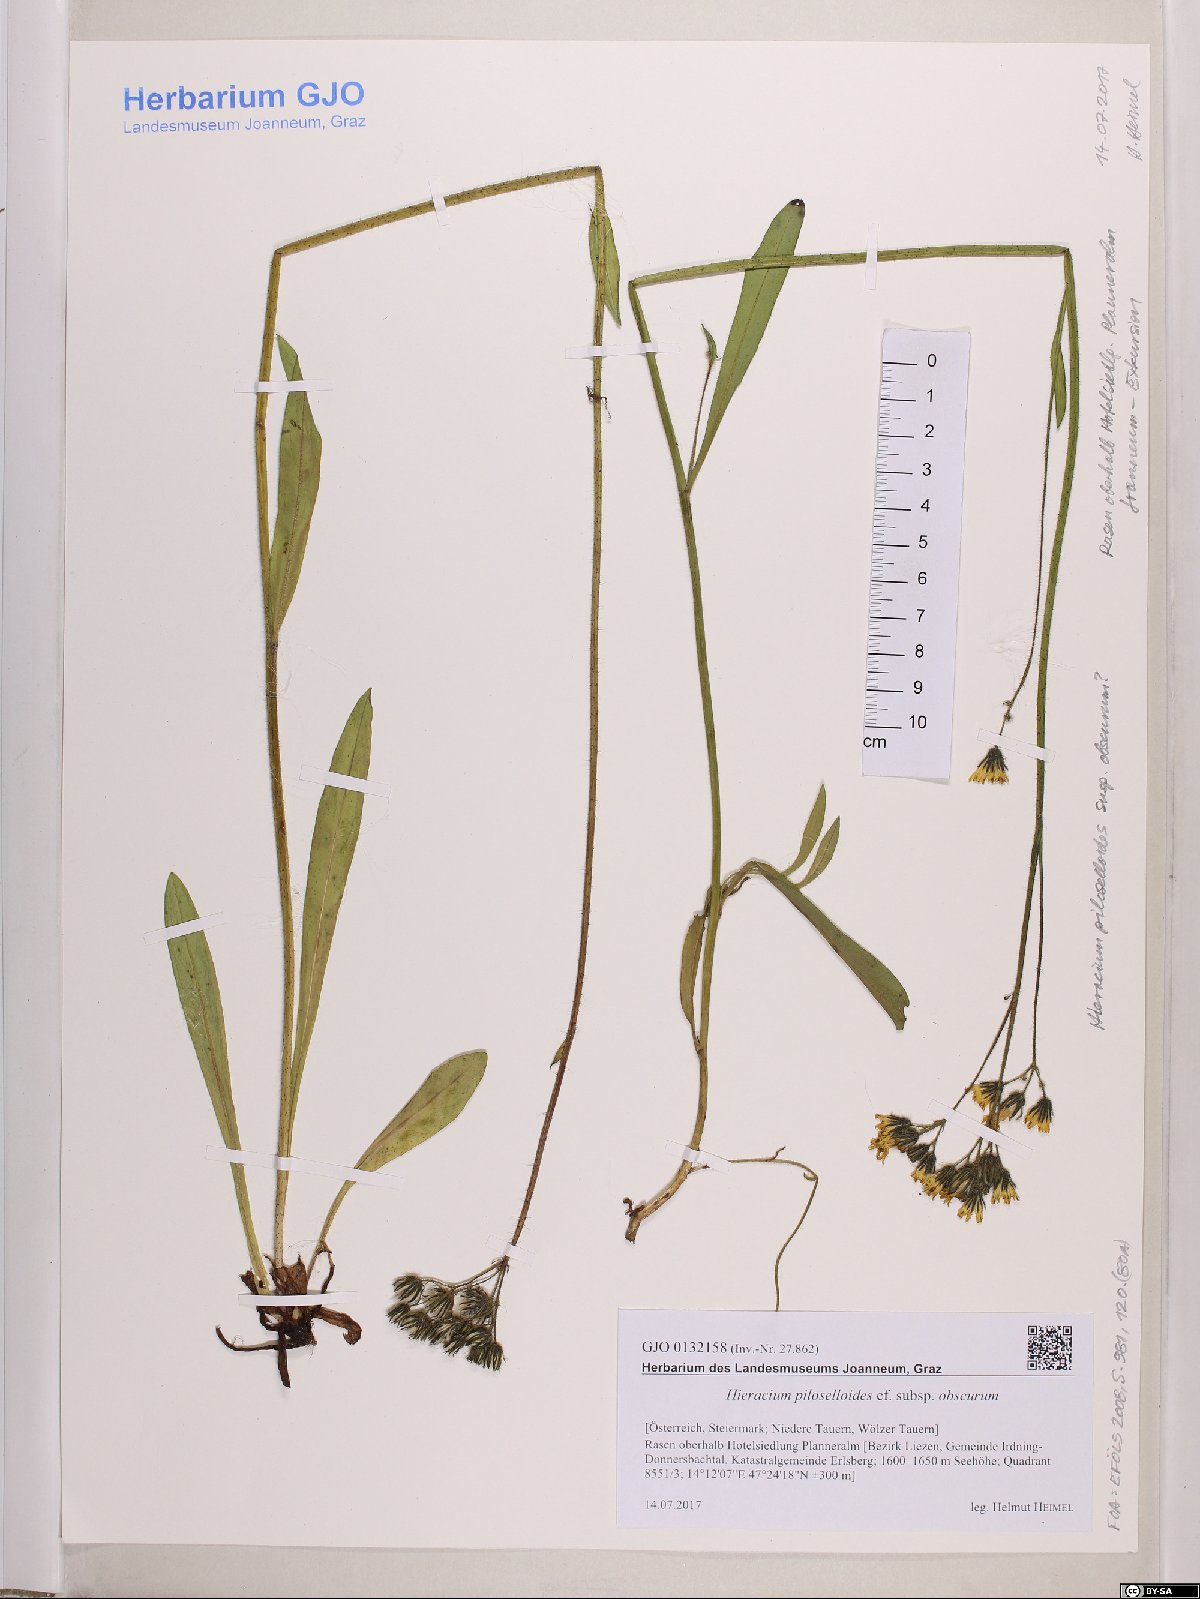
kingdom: Plantae
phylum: Tracheophyta
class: Magnoliopsida
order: Asterales
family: Asteraceae
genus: Pilosella
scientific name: Pilosella piloselloides
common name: Glaucous king-devil
